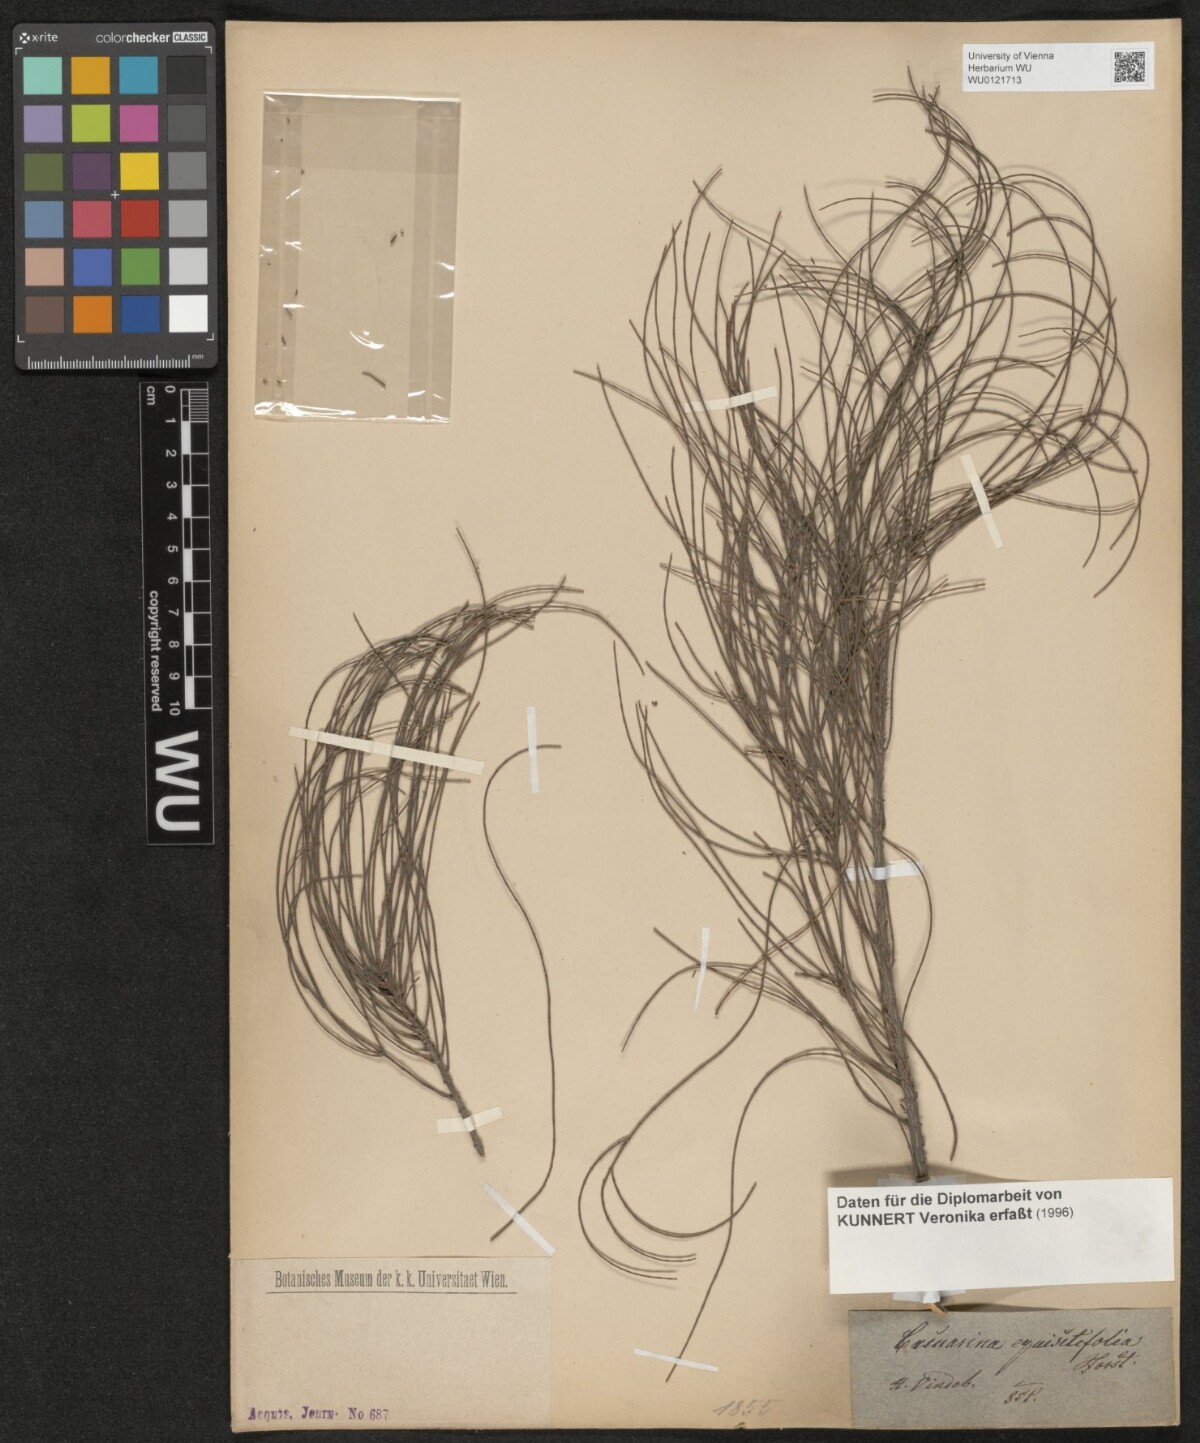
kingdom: Plantae
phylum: Tracheophyta
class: Magnoliopsida
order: Fagales
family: Casuarinaceae
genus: Casuarina
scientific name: Casuarina stricta
